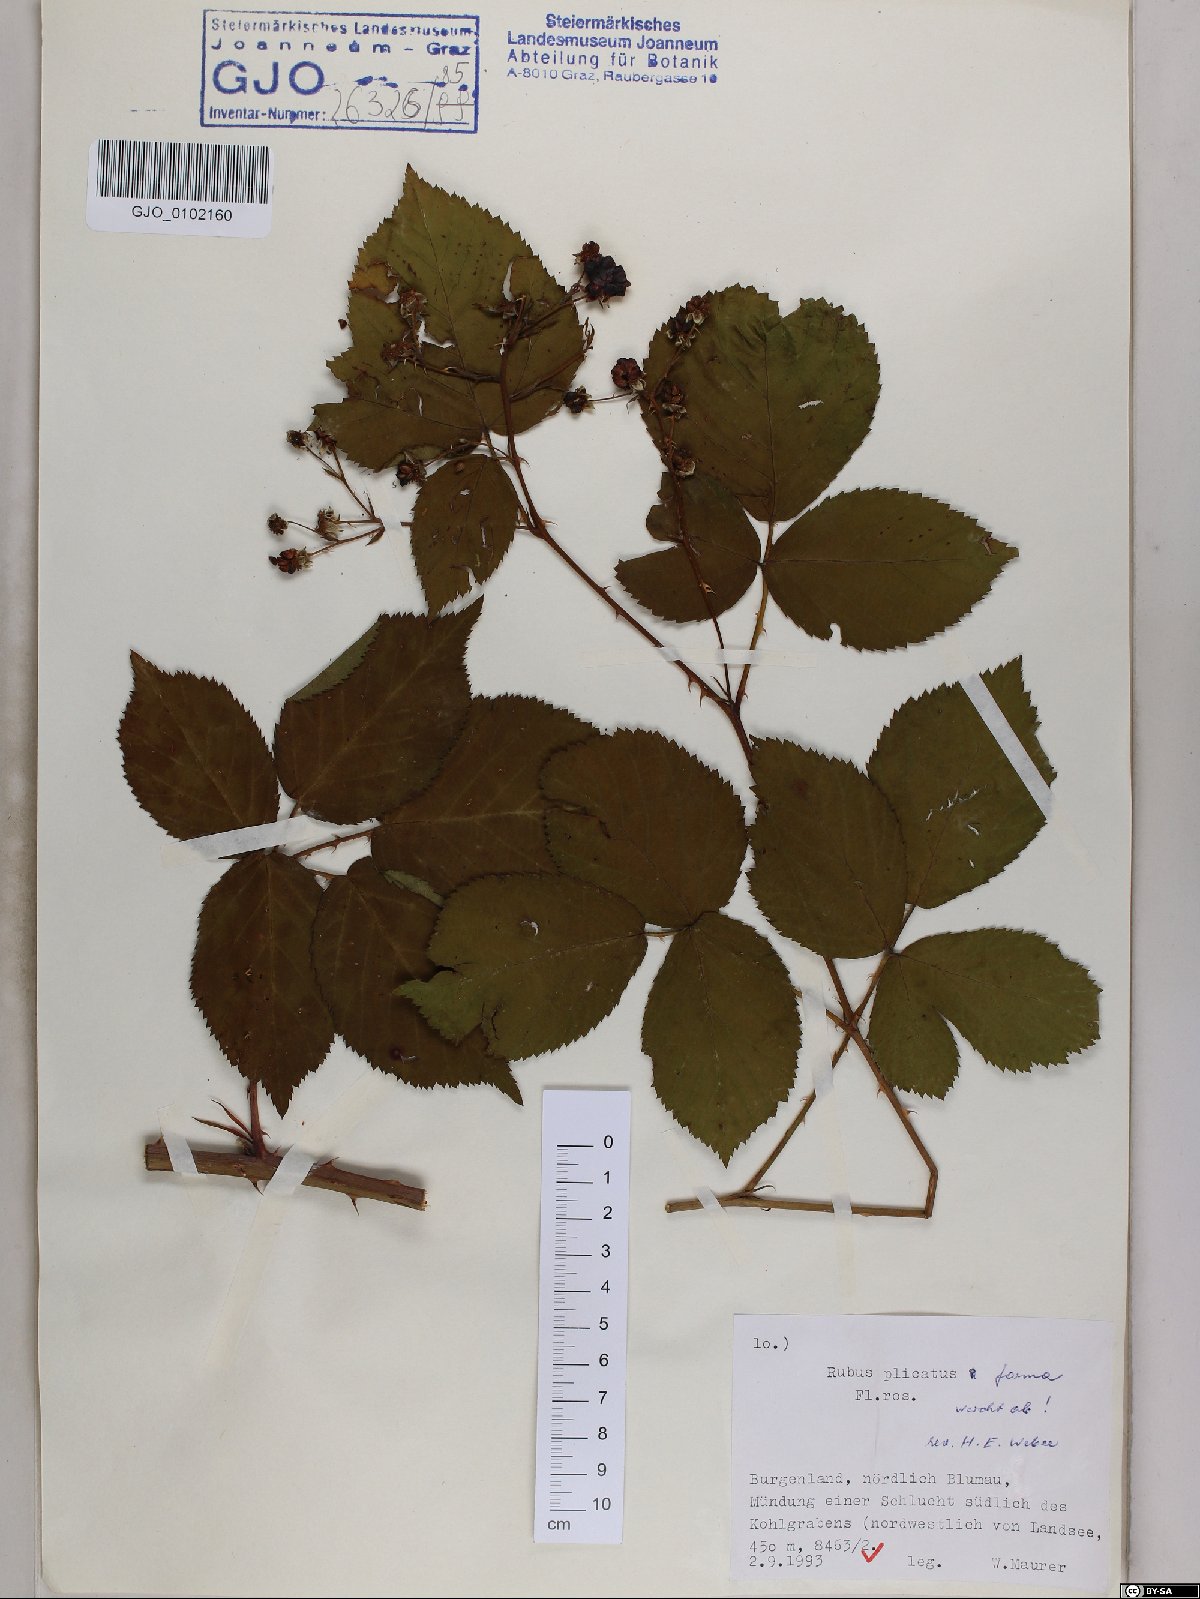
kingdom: Plantae
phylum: Tracheophyta
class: Magnoliopsida
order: Rosales
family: Rosaceae
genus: Rubus
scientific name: Rubus plicatus
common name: Plaited-leaved bramble
